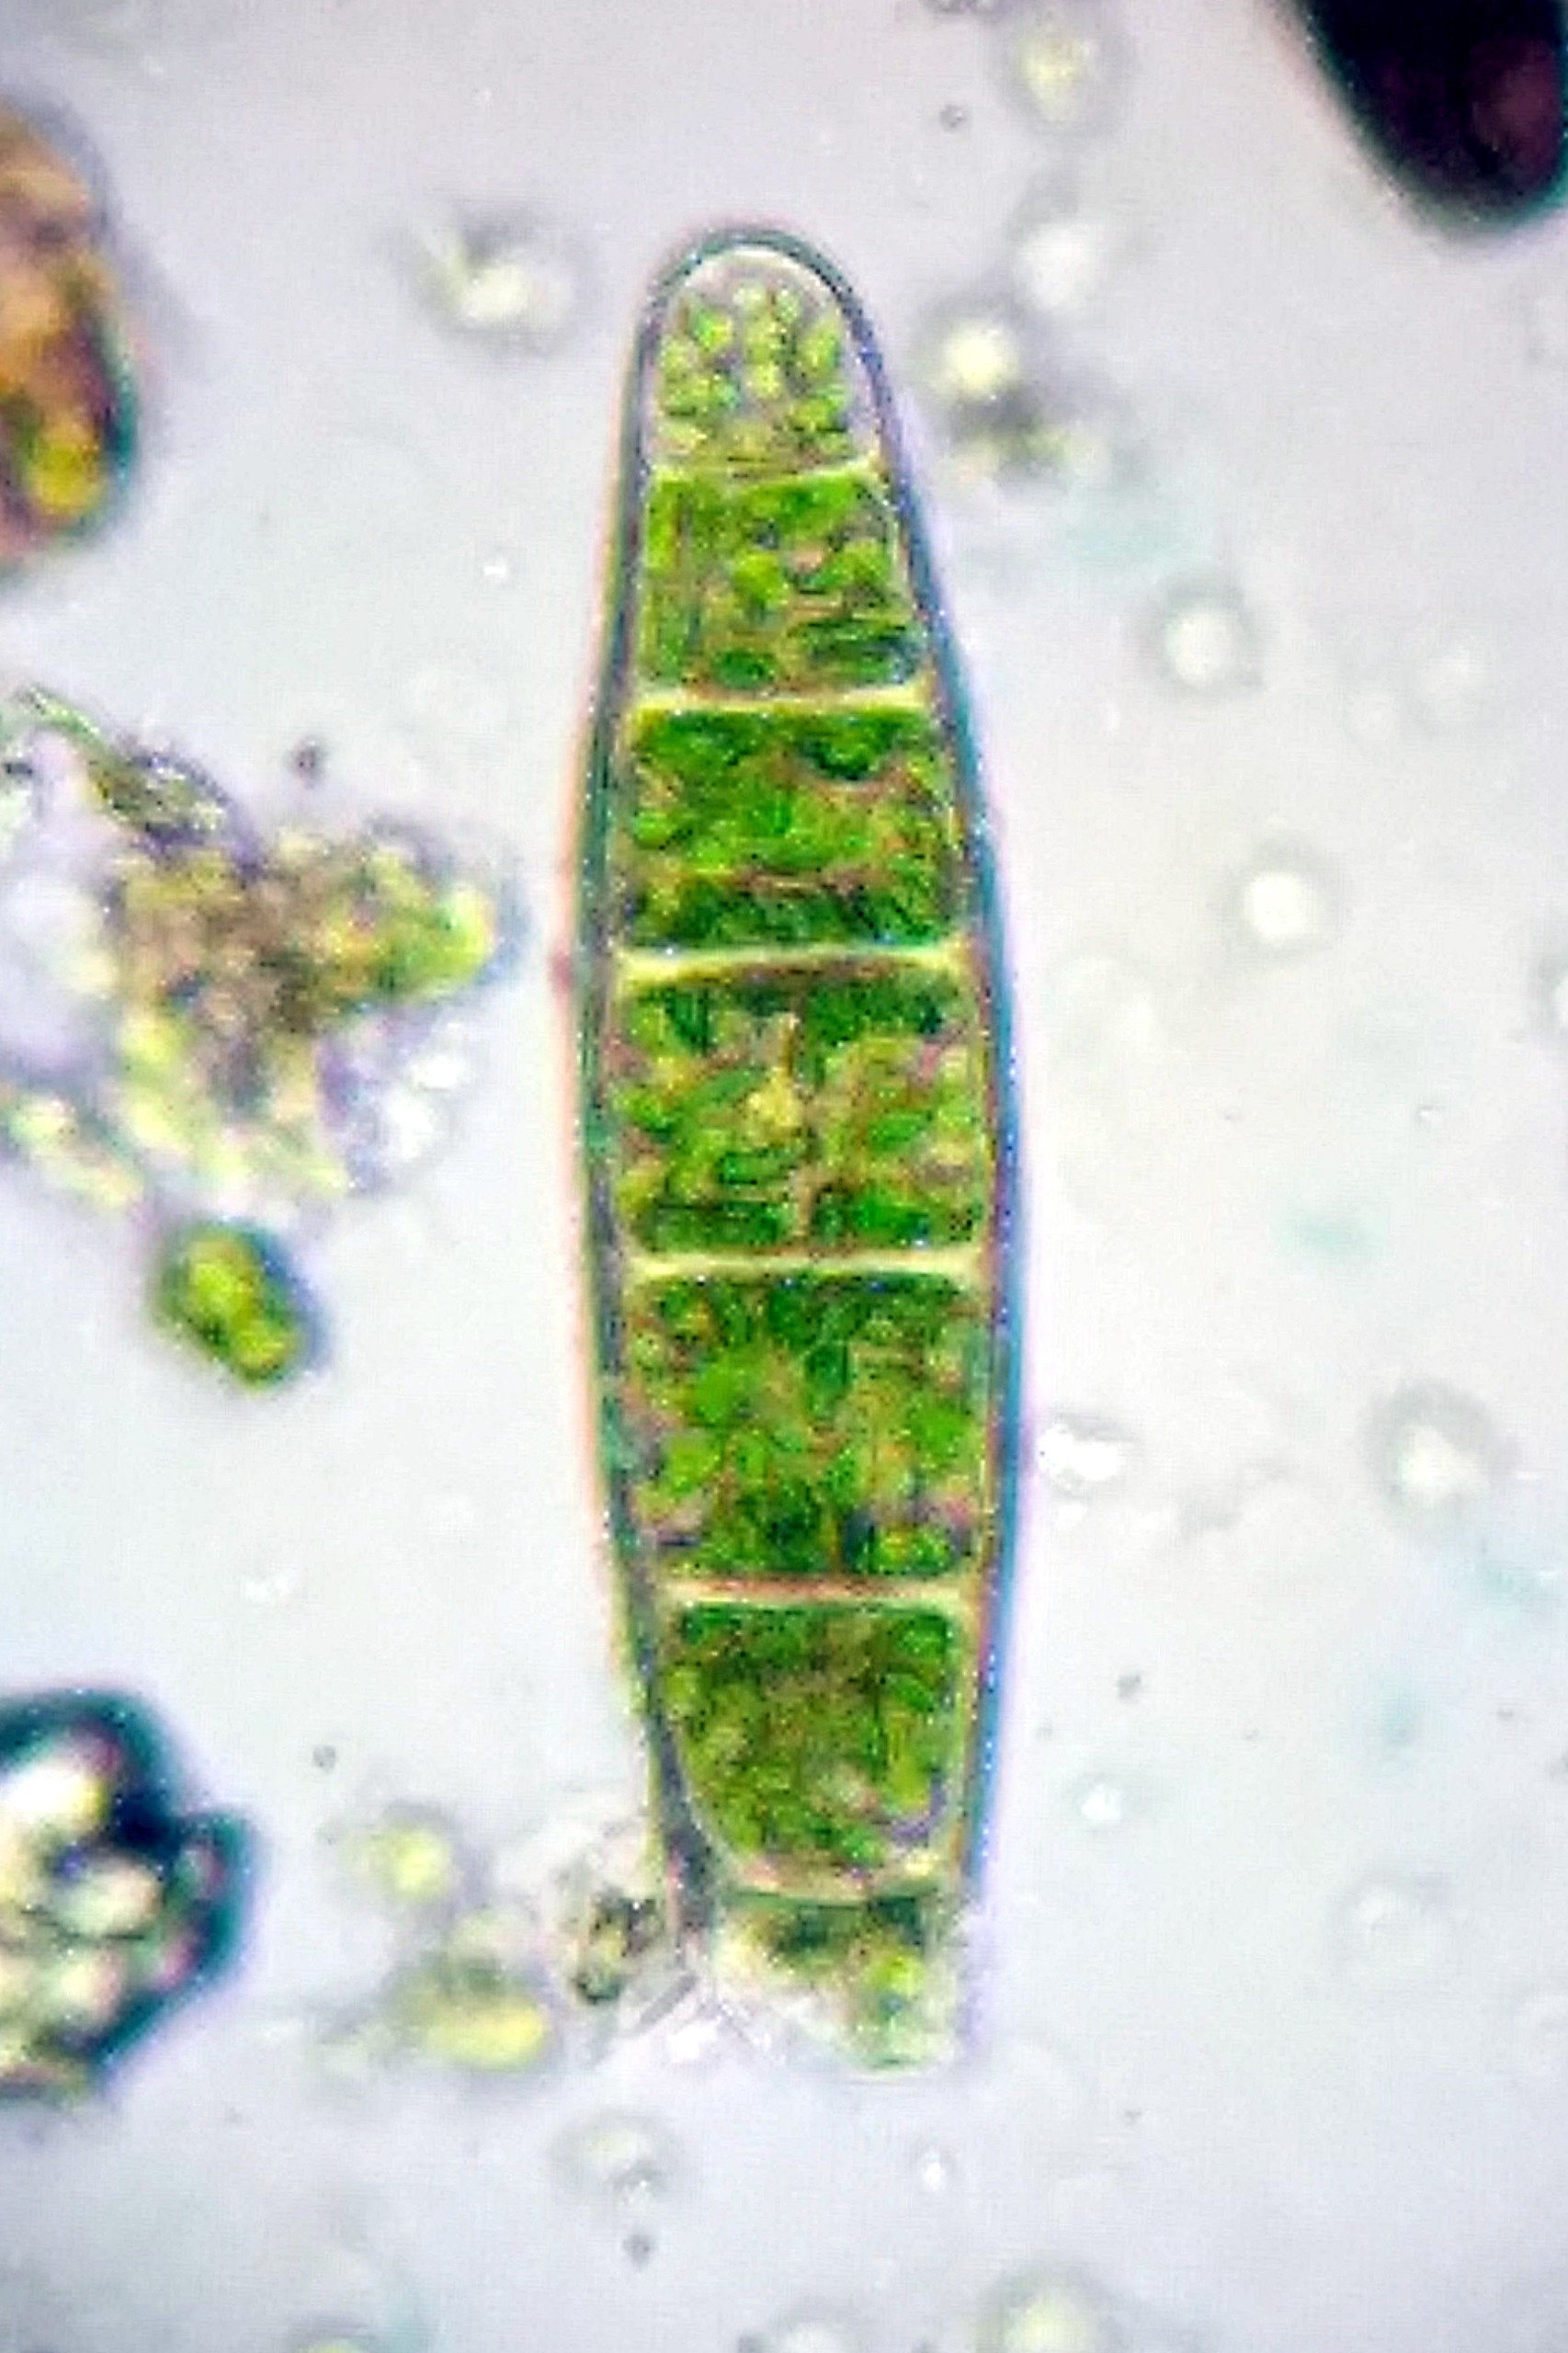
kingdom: Plantae
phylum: Bryophyta
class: Bryopsida
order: Orthotrichales
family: Orthotrichaceae
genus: Zygodon
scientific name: Zygodon conoideus
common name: Tand-køllemos
